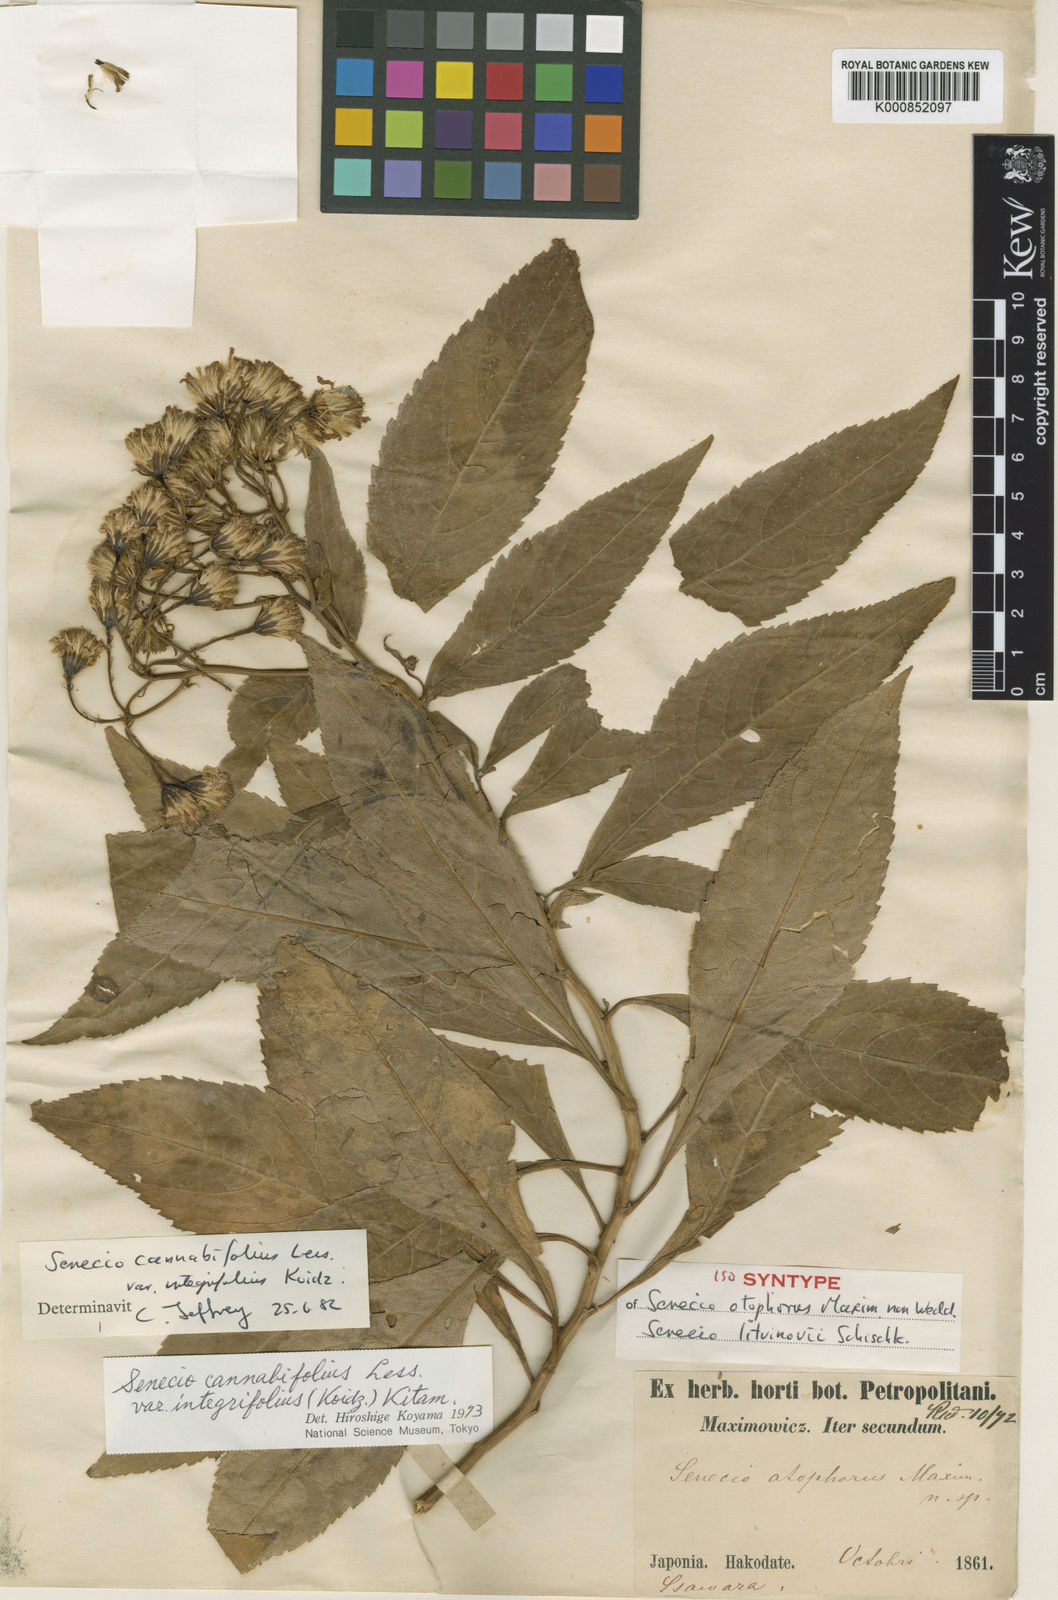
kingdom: Plantae
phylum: Tracheophyta
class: Magnoliopsida
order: Asterales
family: Asteraceae
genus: Jacobaea
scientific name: Jacobaea litvinovii
